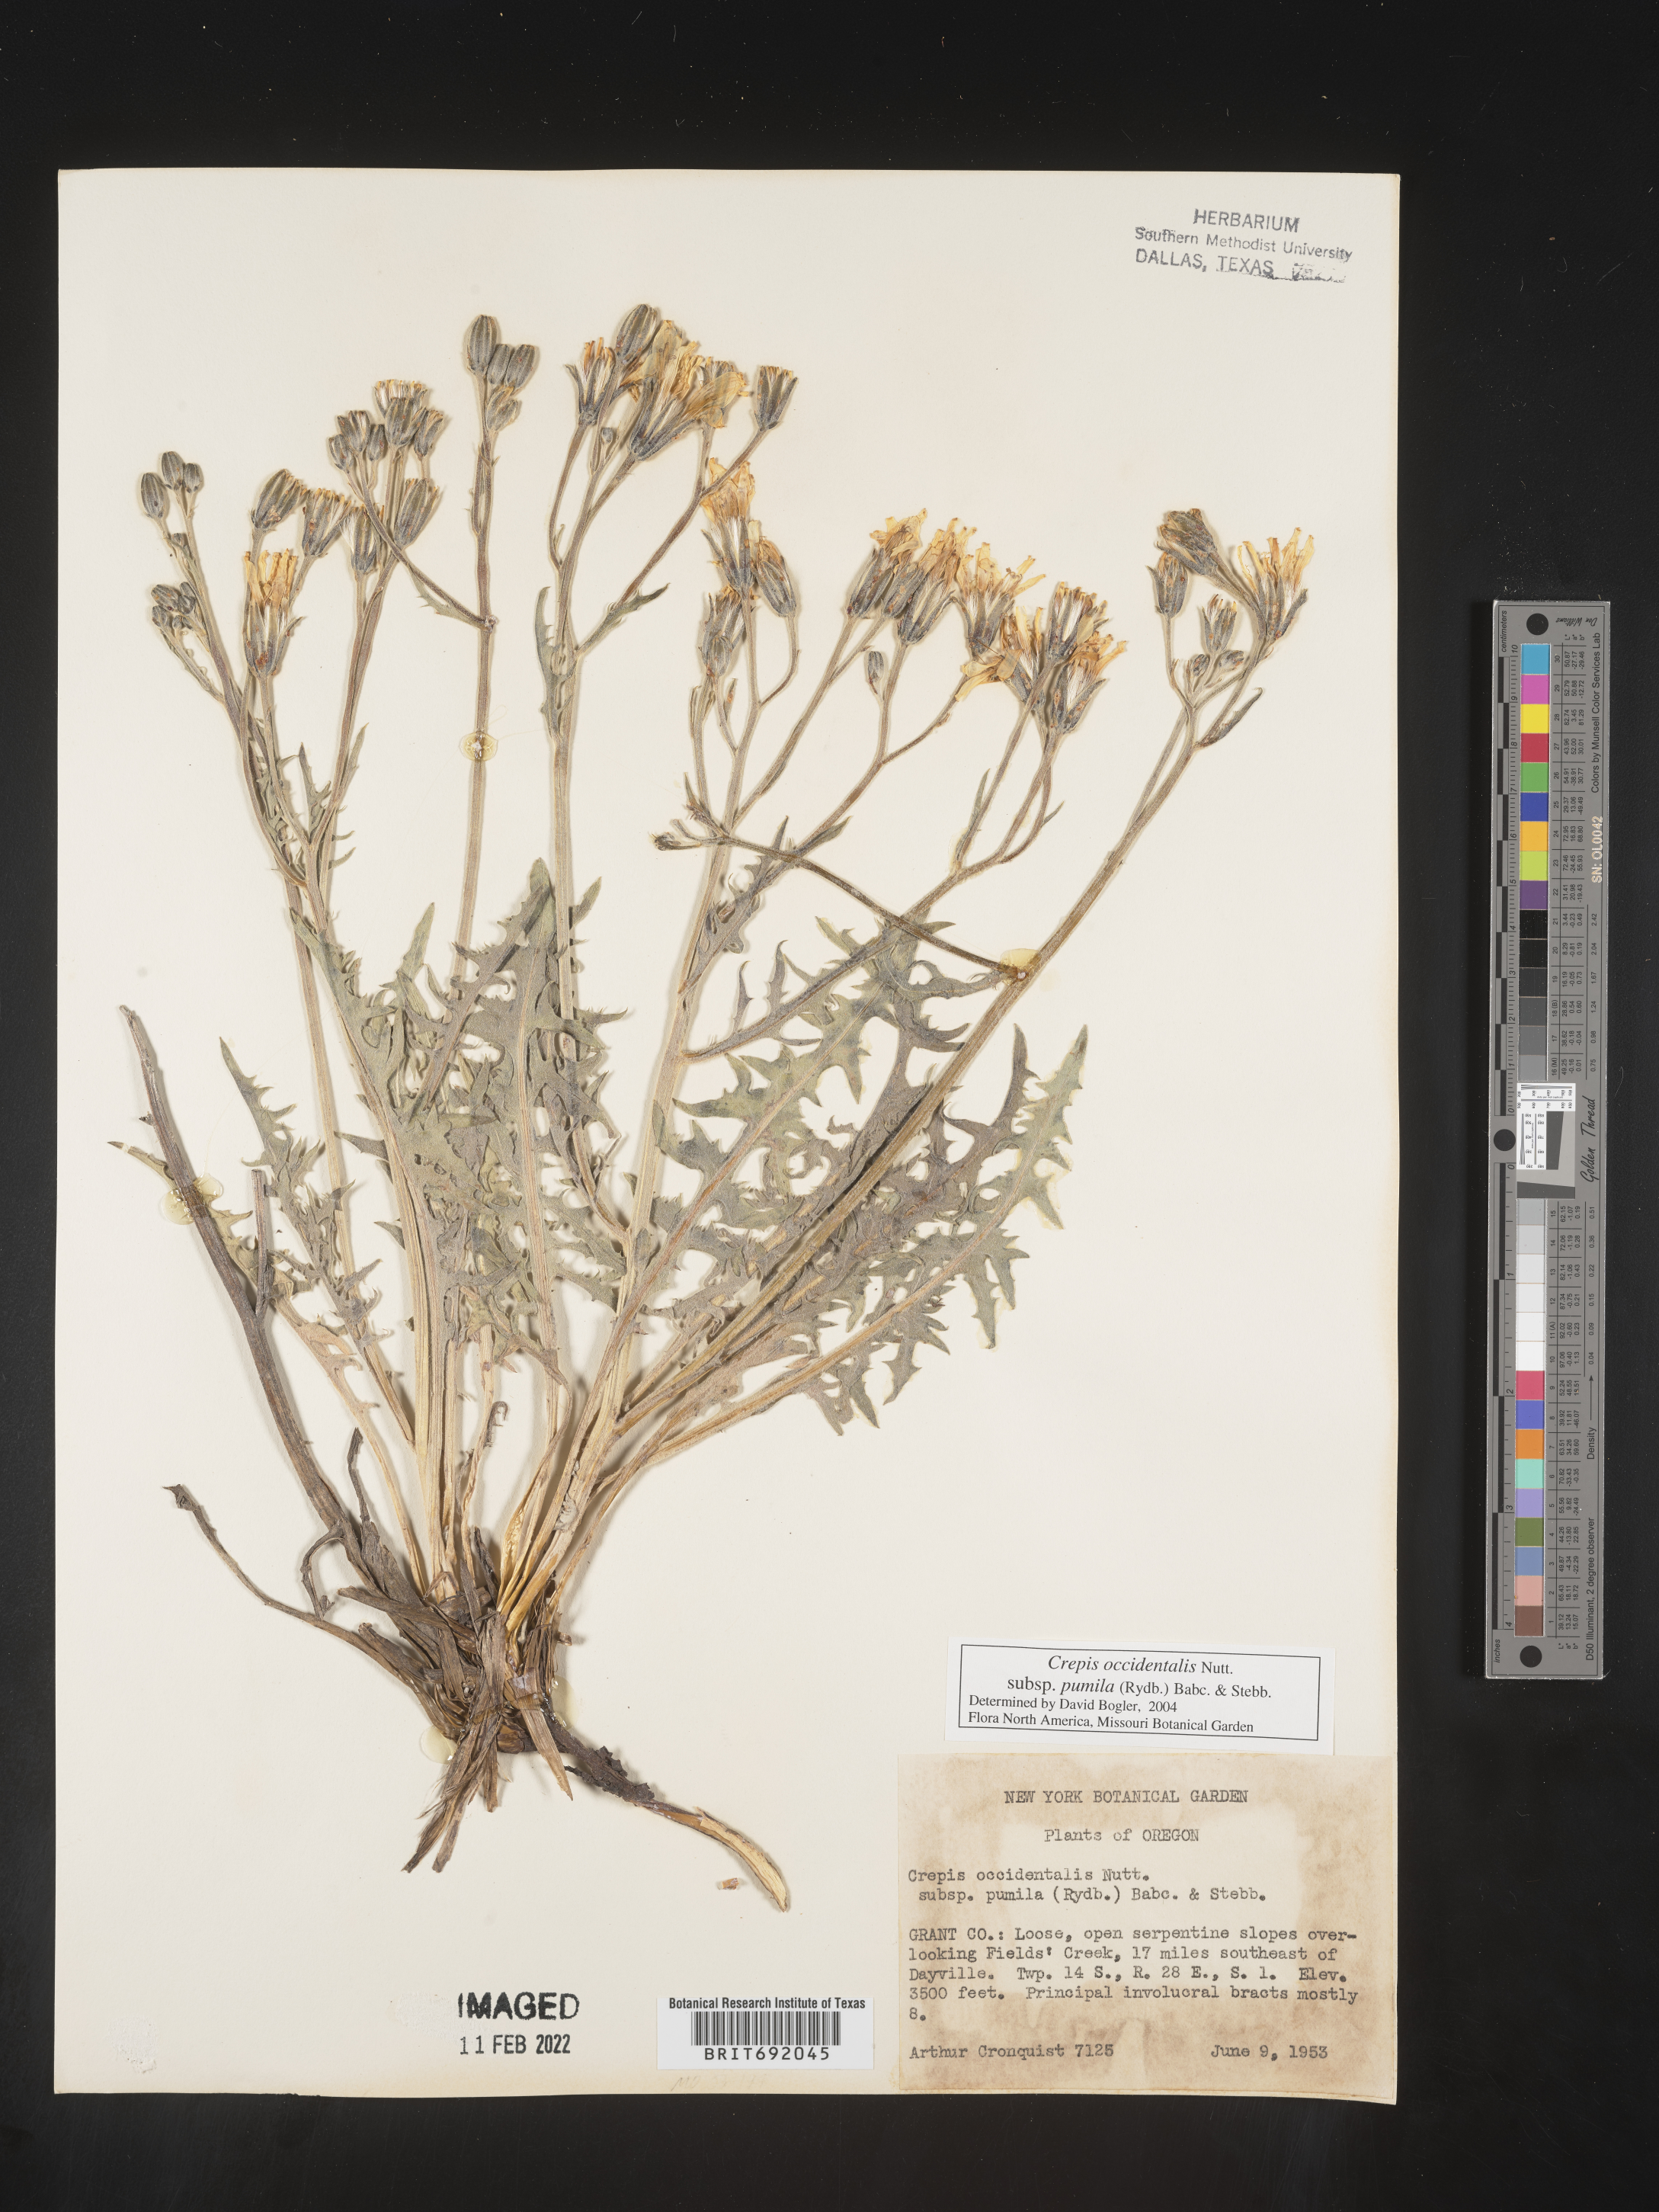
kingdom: Plantae
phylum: Tracheophyta
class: Magnoliopsida
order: Asterales
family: Asteraceae
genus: Crepis
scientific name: Crepis occidentalis
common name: Gray hawk's-beard
